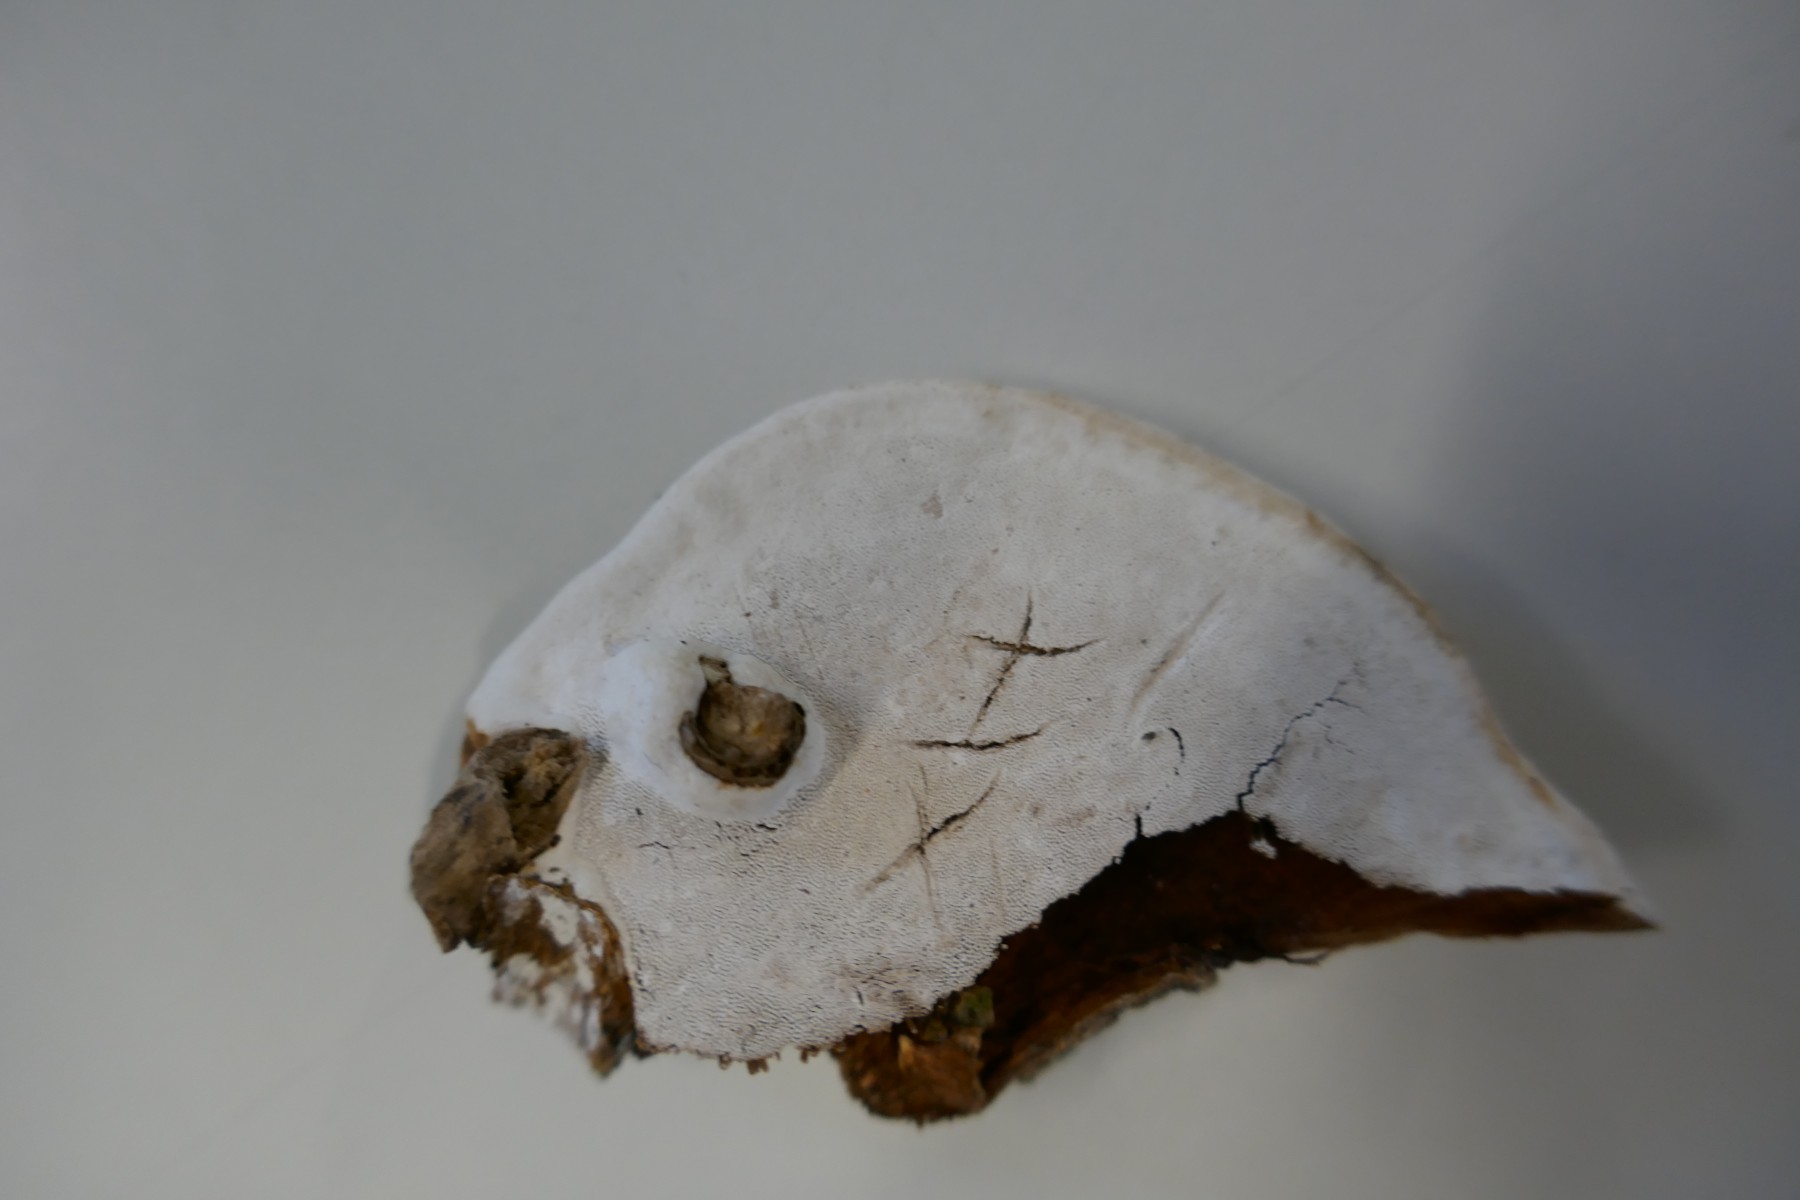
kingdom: Fungi
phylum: Basidiomycota
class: Agaricomycetes
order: Polyporales
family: Polyporaceae
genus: Ganoderma
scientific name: Ganoderma applanatum
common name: flad lakporesvamp
